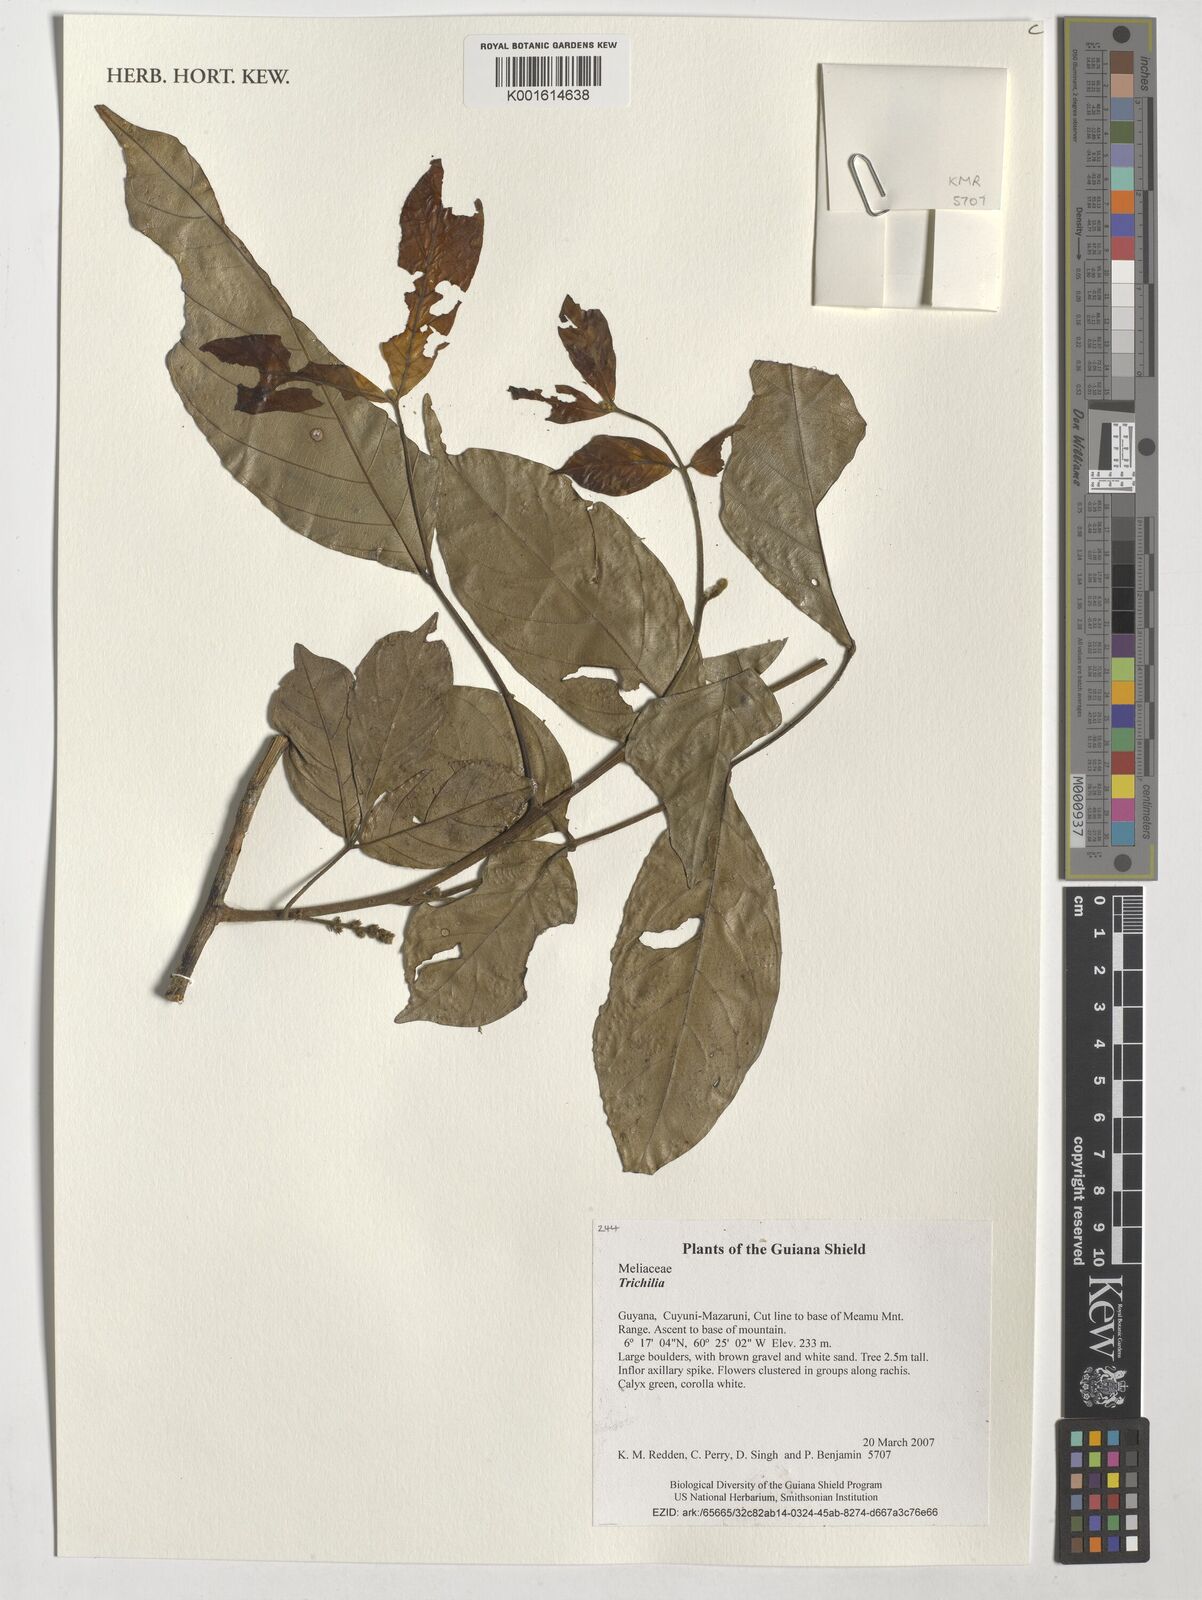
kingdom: Plantae
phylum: Tracheophyta
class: Magnoliopsida
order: Sapindales
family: Meliaceae
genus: Trichilia
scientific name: Trichilia
